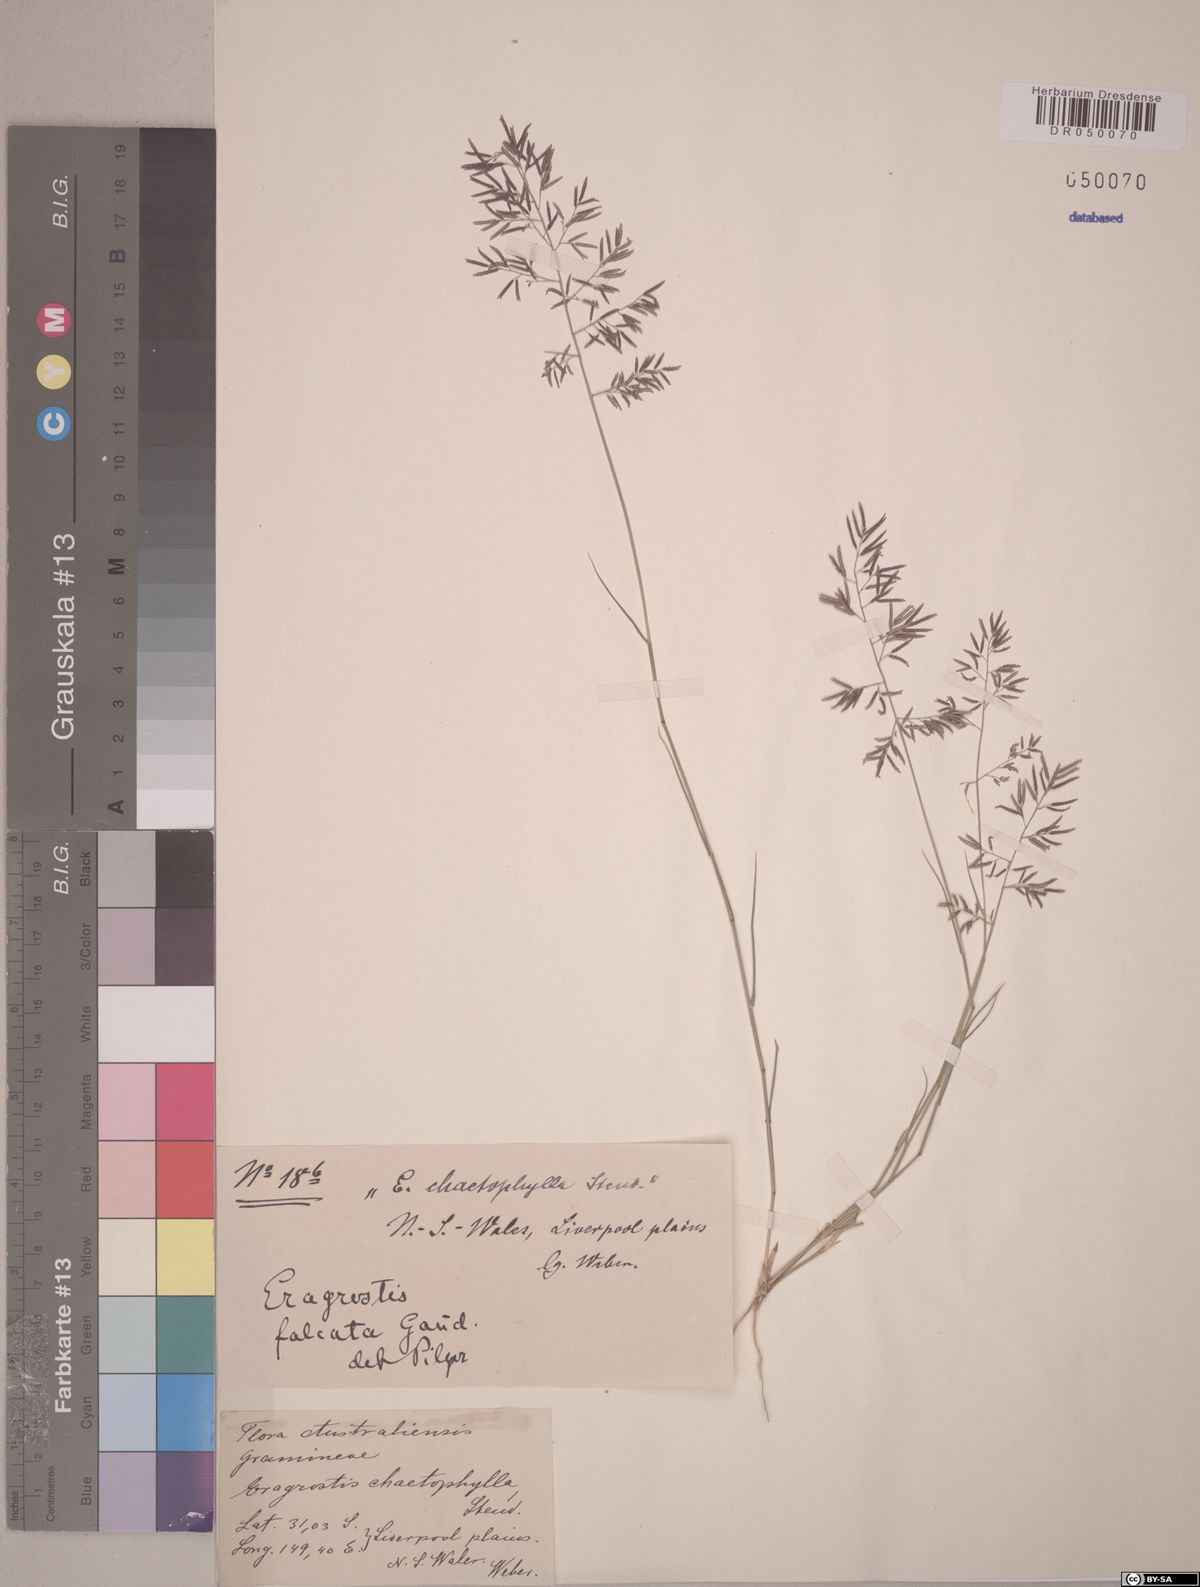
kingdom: Plantae
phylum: Tracheophyta
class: Liliopsida
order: Poales
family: Poaceae
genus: Eragrostis
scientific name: Eragrostis falcata
